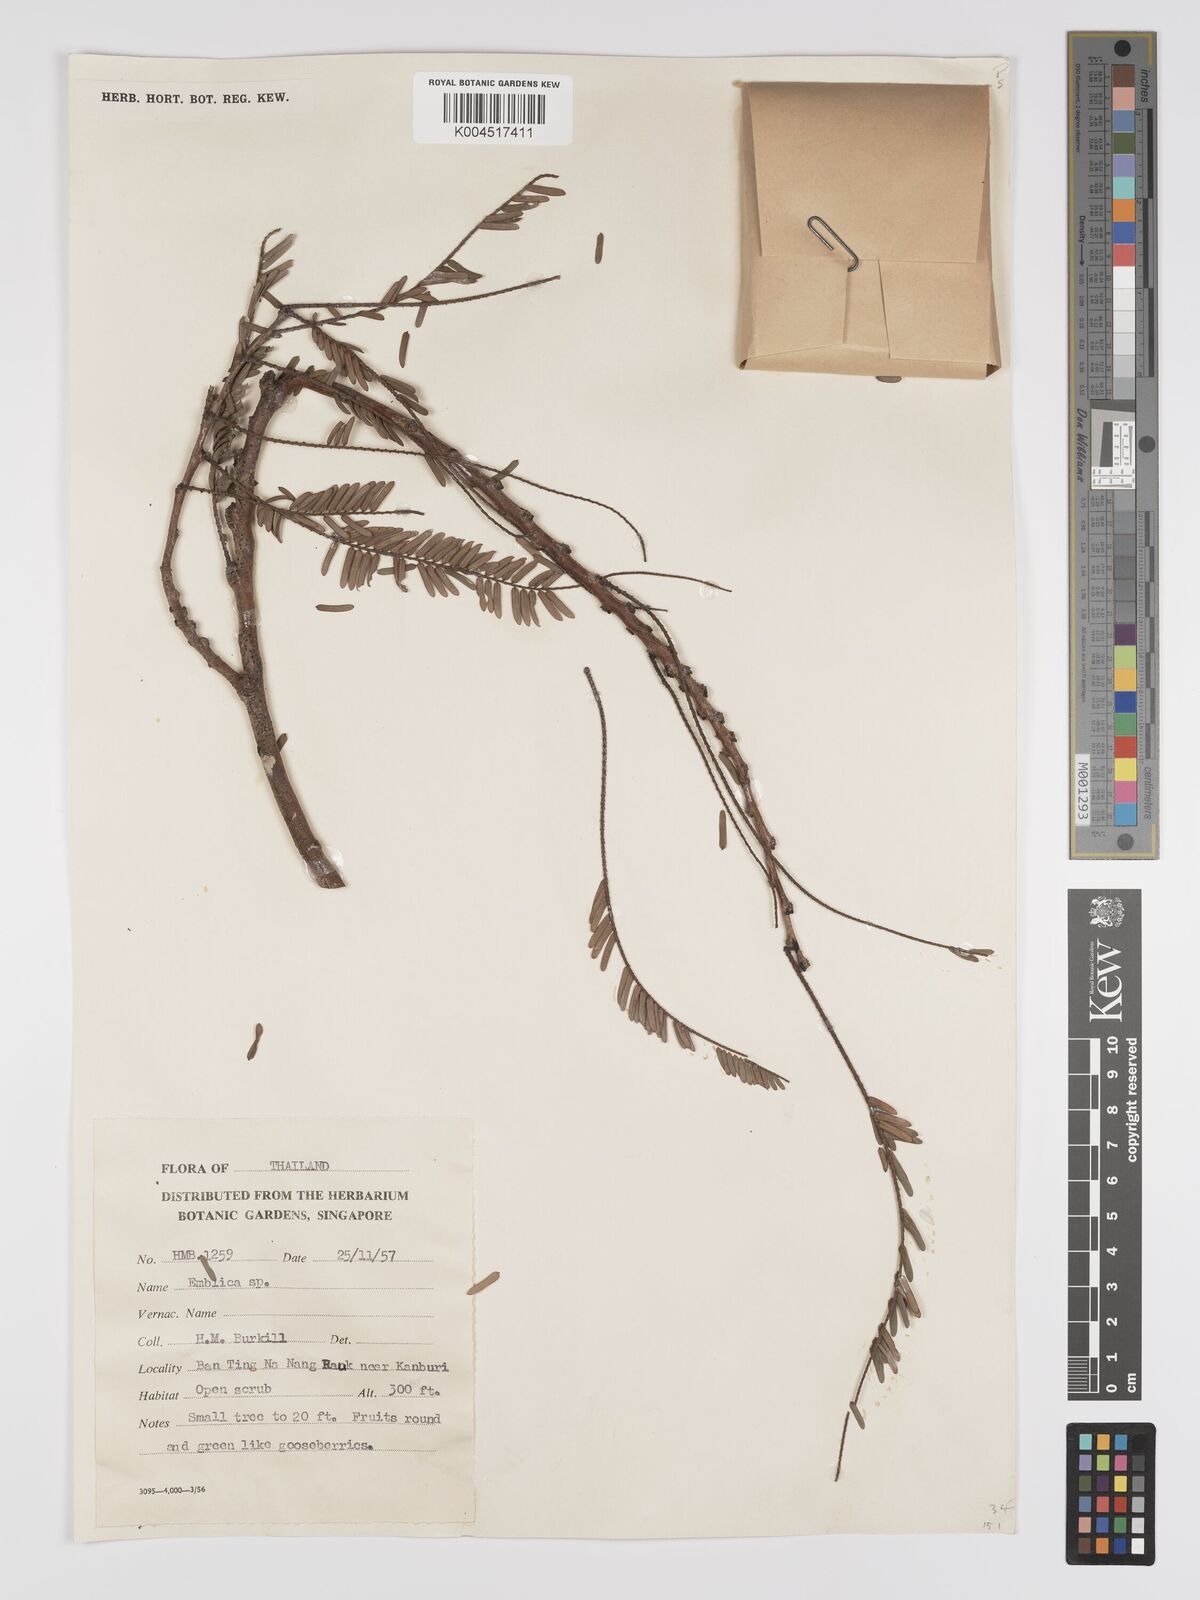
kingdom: Plantae
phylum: Tracheophyta
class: Magnoliopsida
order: Malpighiales
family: Phyllanthaceae
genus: Phyllanthus
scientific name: Phyllanthus emblica
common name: Indian gooseberry
